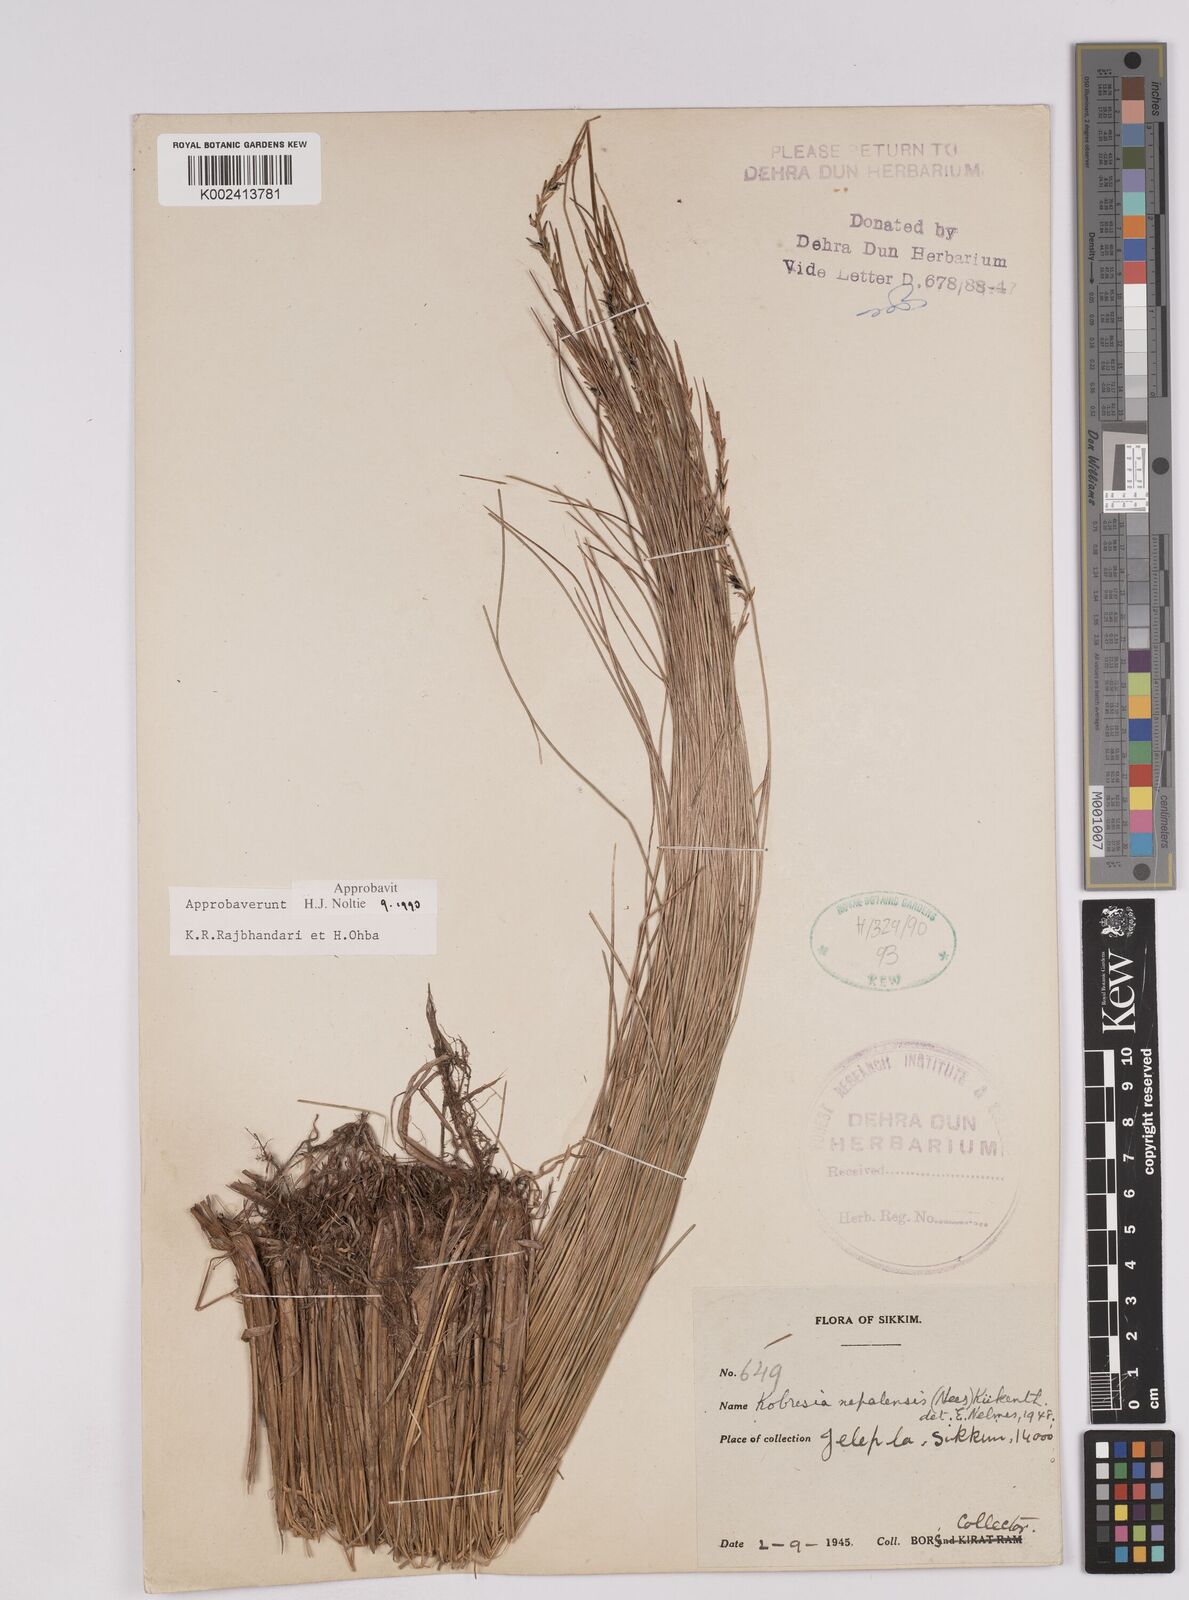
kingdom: Plantae
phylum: Tracheophyta
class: Liliopsida
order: Poales
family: Cyperaceae
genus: Carex
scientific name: Carex unciniiformis
